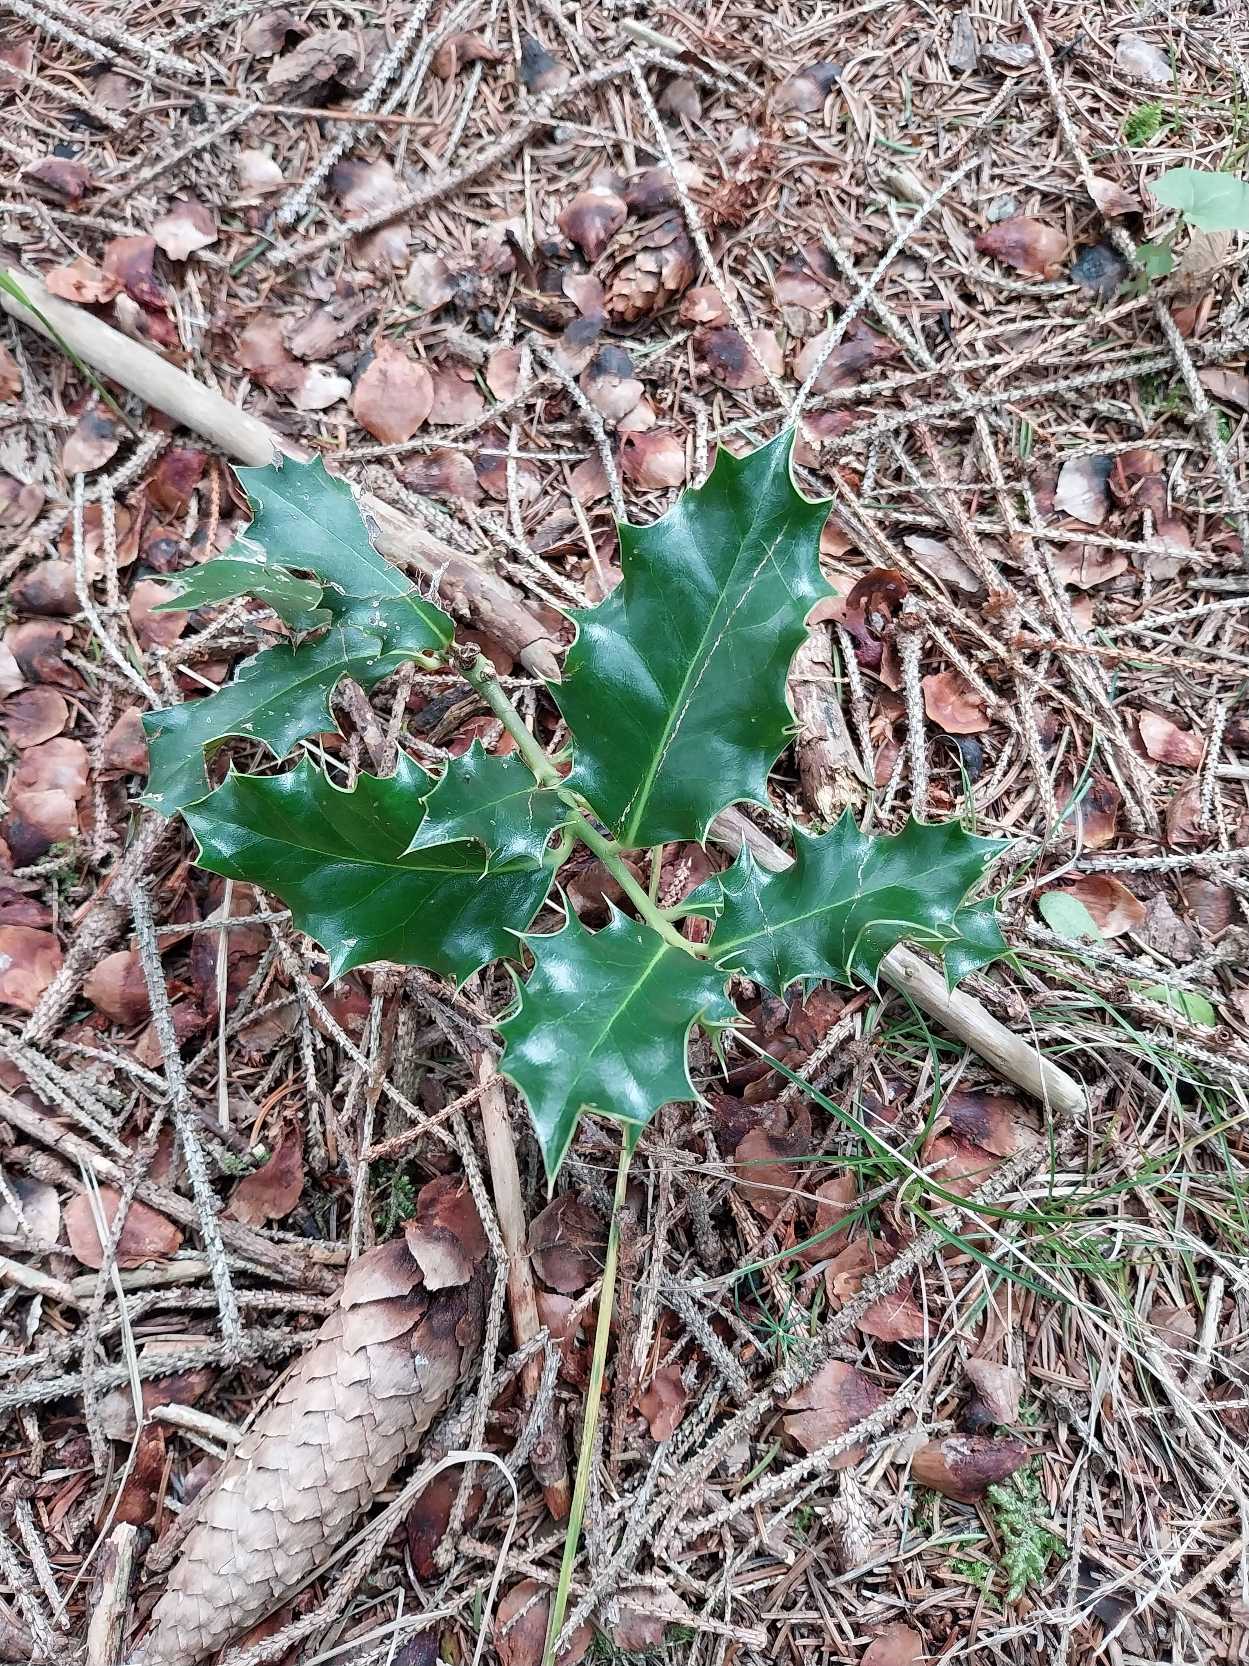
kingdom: Plantae
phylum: Tracheophyta
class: Magnoliopsida
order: Aquifoliales
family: Aquifoliaceae
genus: Ilex
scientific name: Ilex aquifolium
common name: Kristtorn
